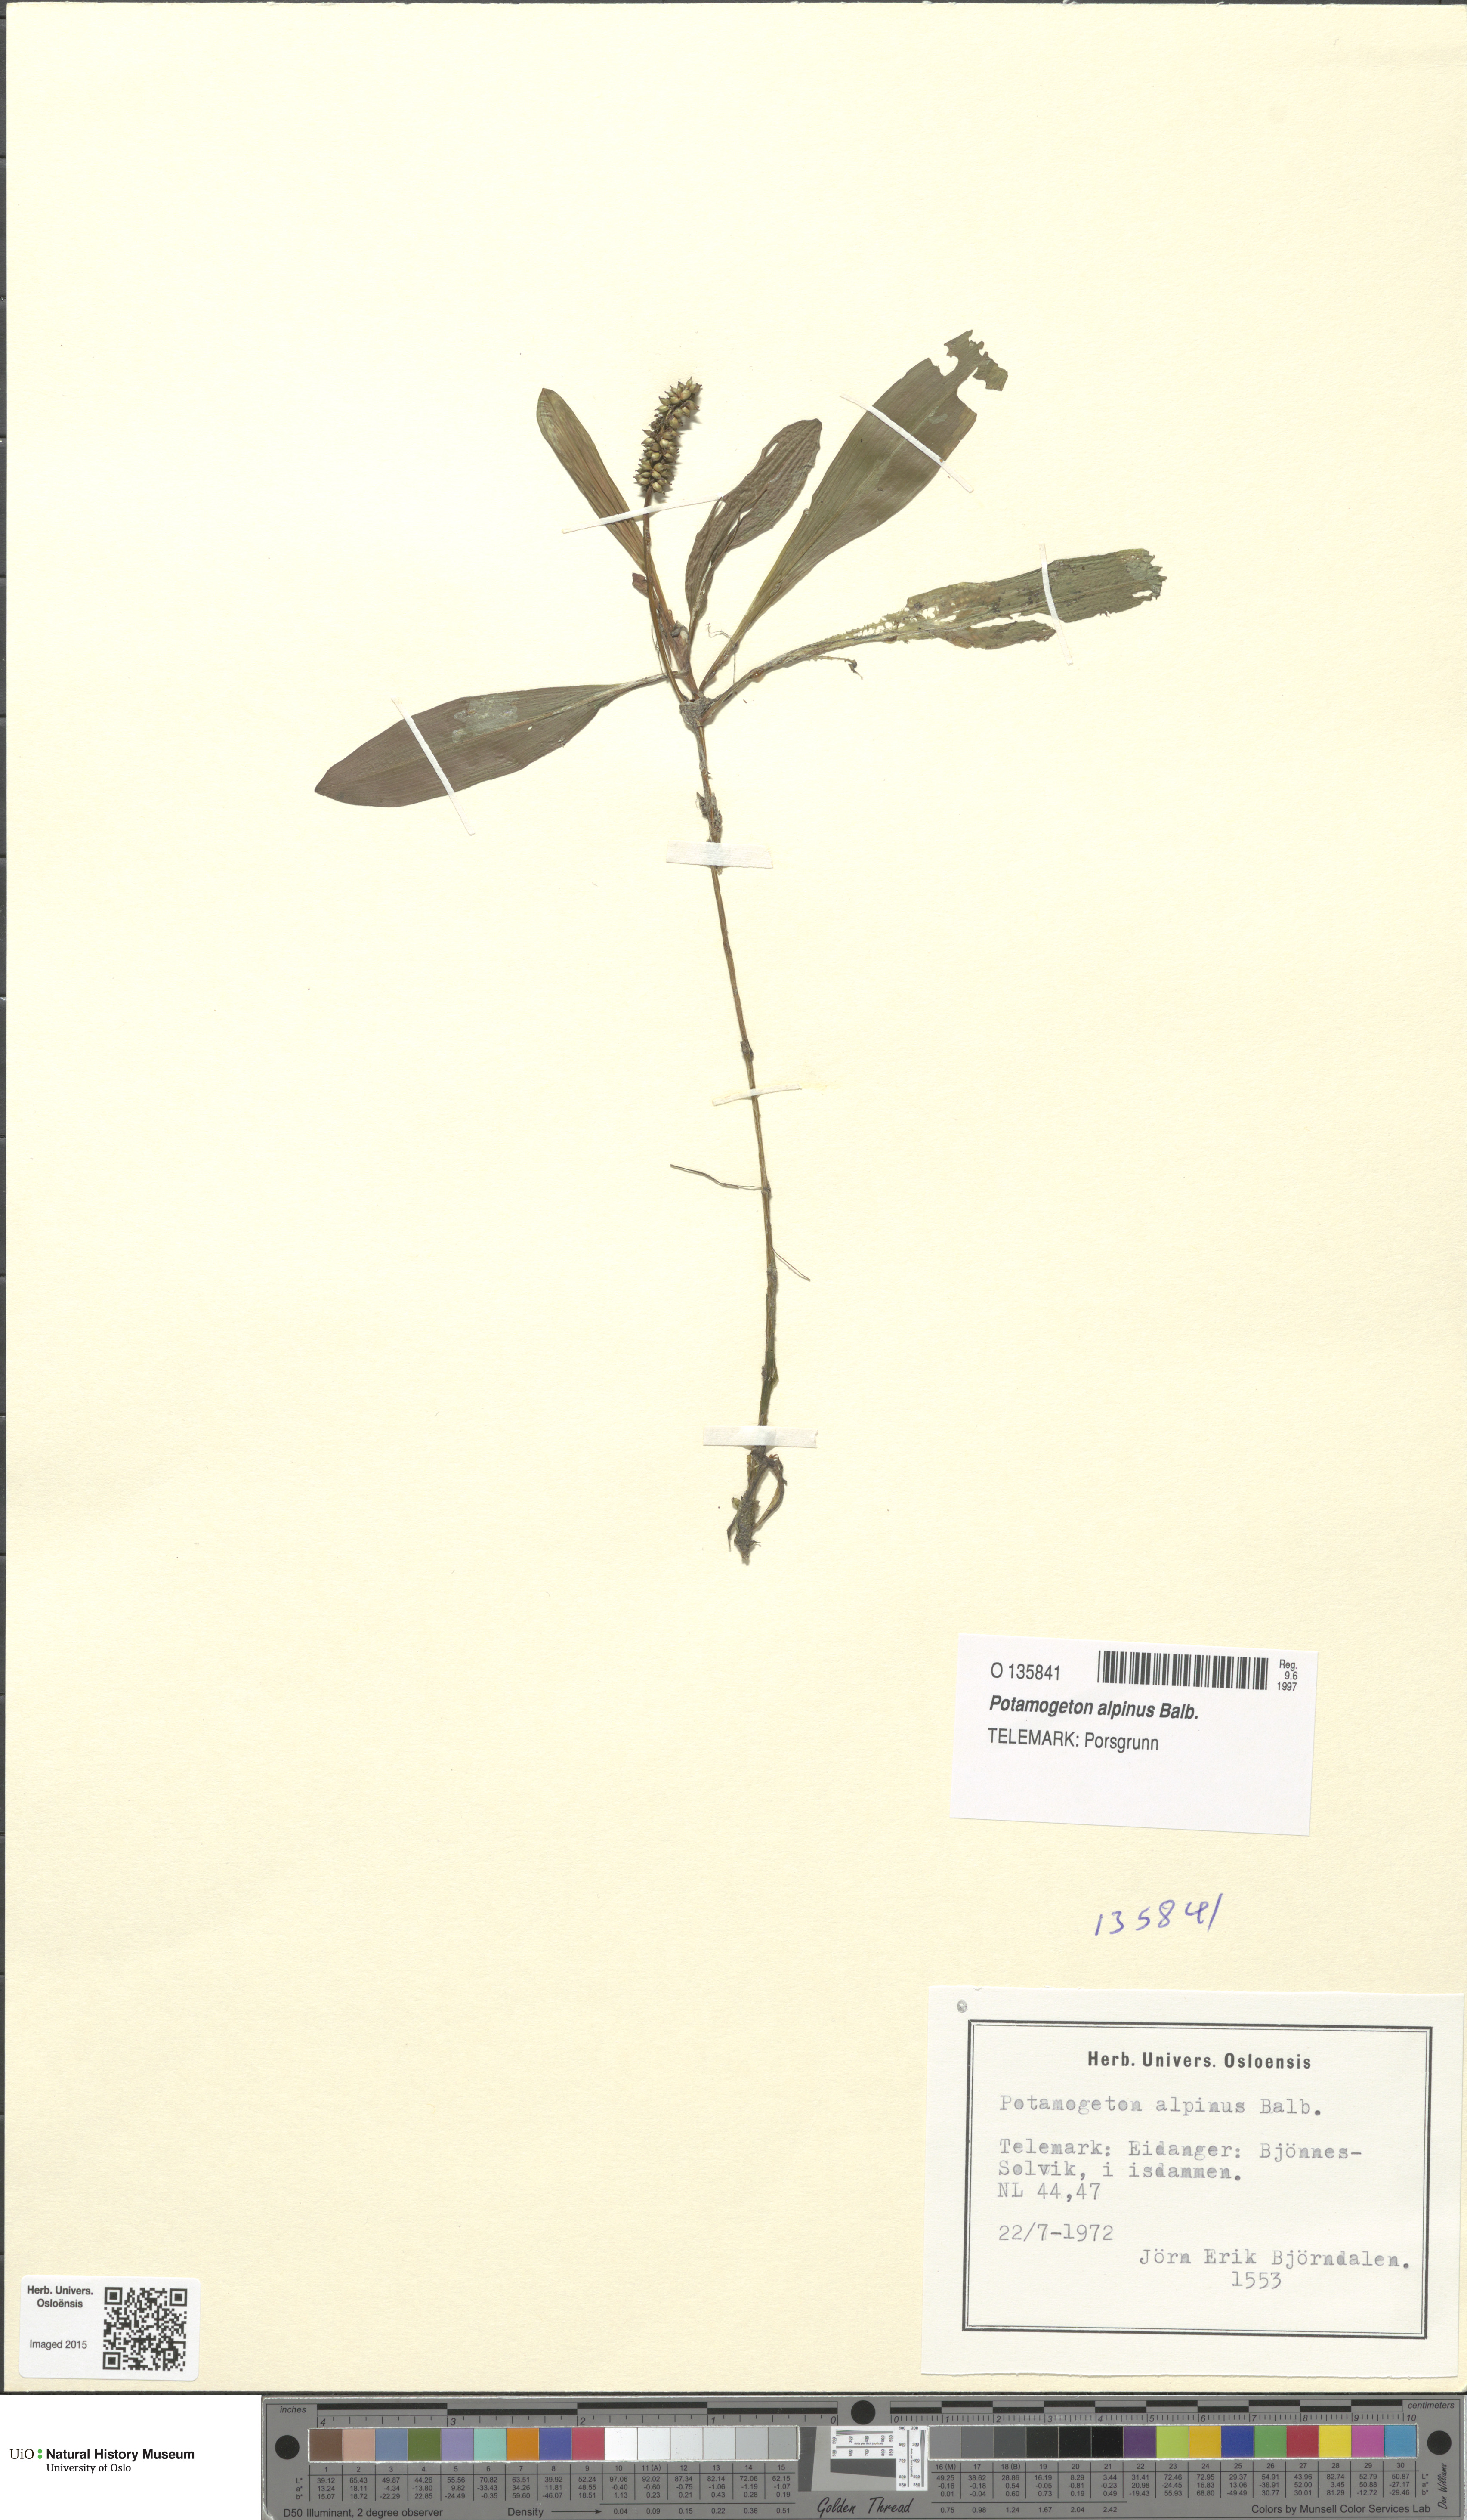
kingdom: Plantae
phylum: Tracheophyta
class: Liliopsida
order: Alismatales
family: Potamogetonaceae
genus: Potamogeton
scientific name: Potamogeton alpinus
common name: Red pondweed
